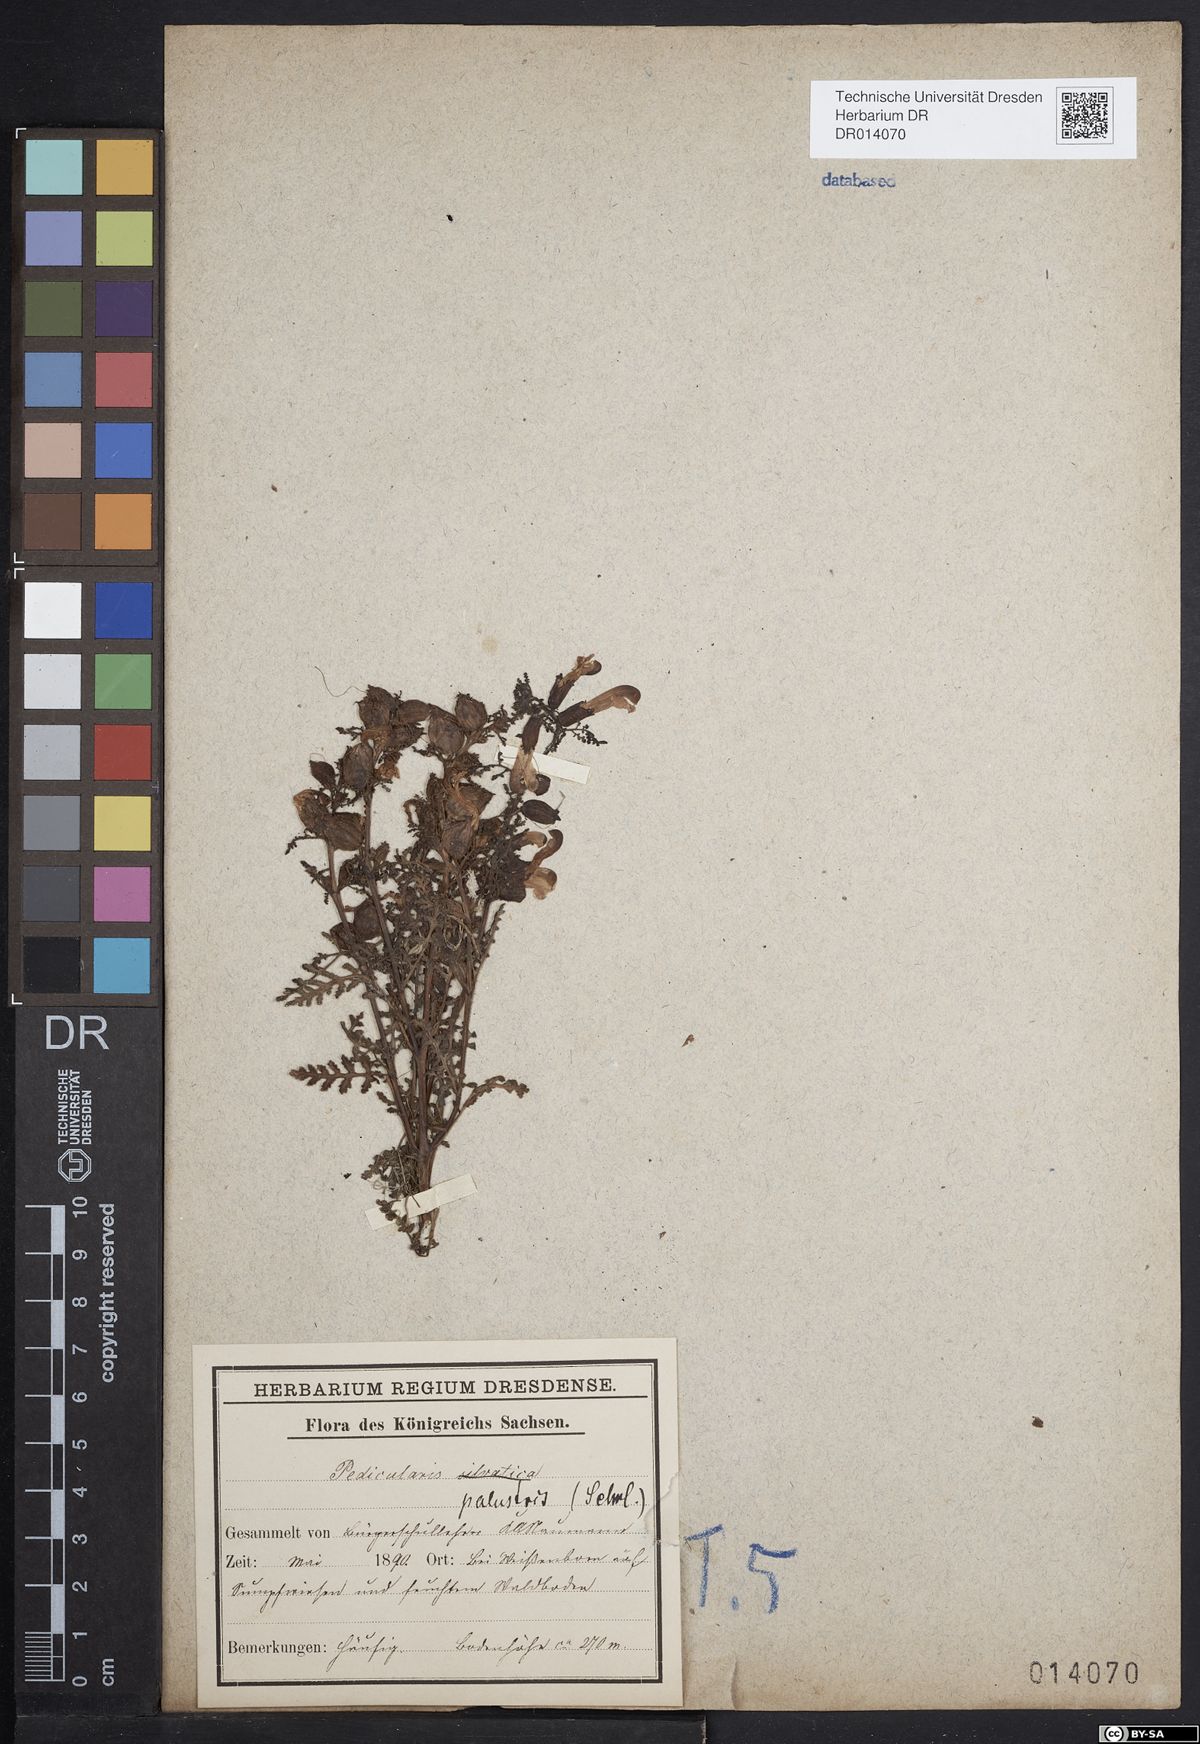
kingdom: Plantae
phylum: Tracheophyta
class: Magnoliopsida
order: Lamiales
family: Orobanchaceae
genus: Pedicularis
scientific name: Pedicularis palustris
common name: Marsh lousewort
